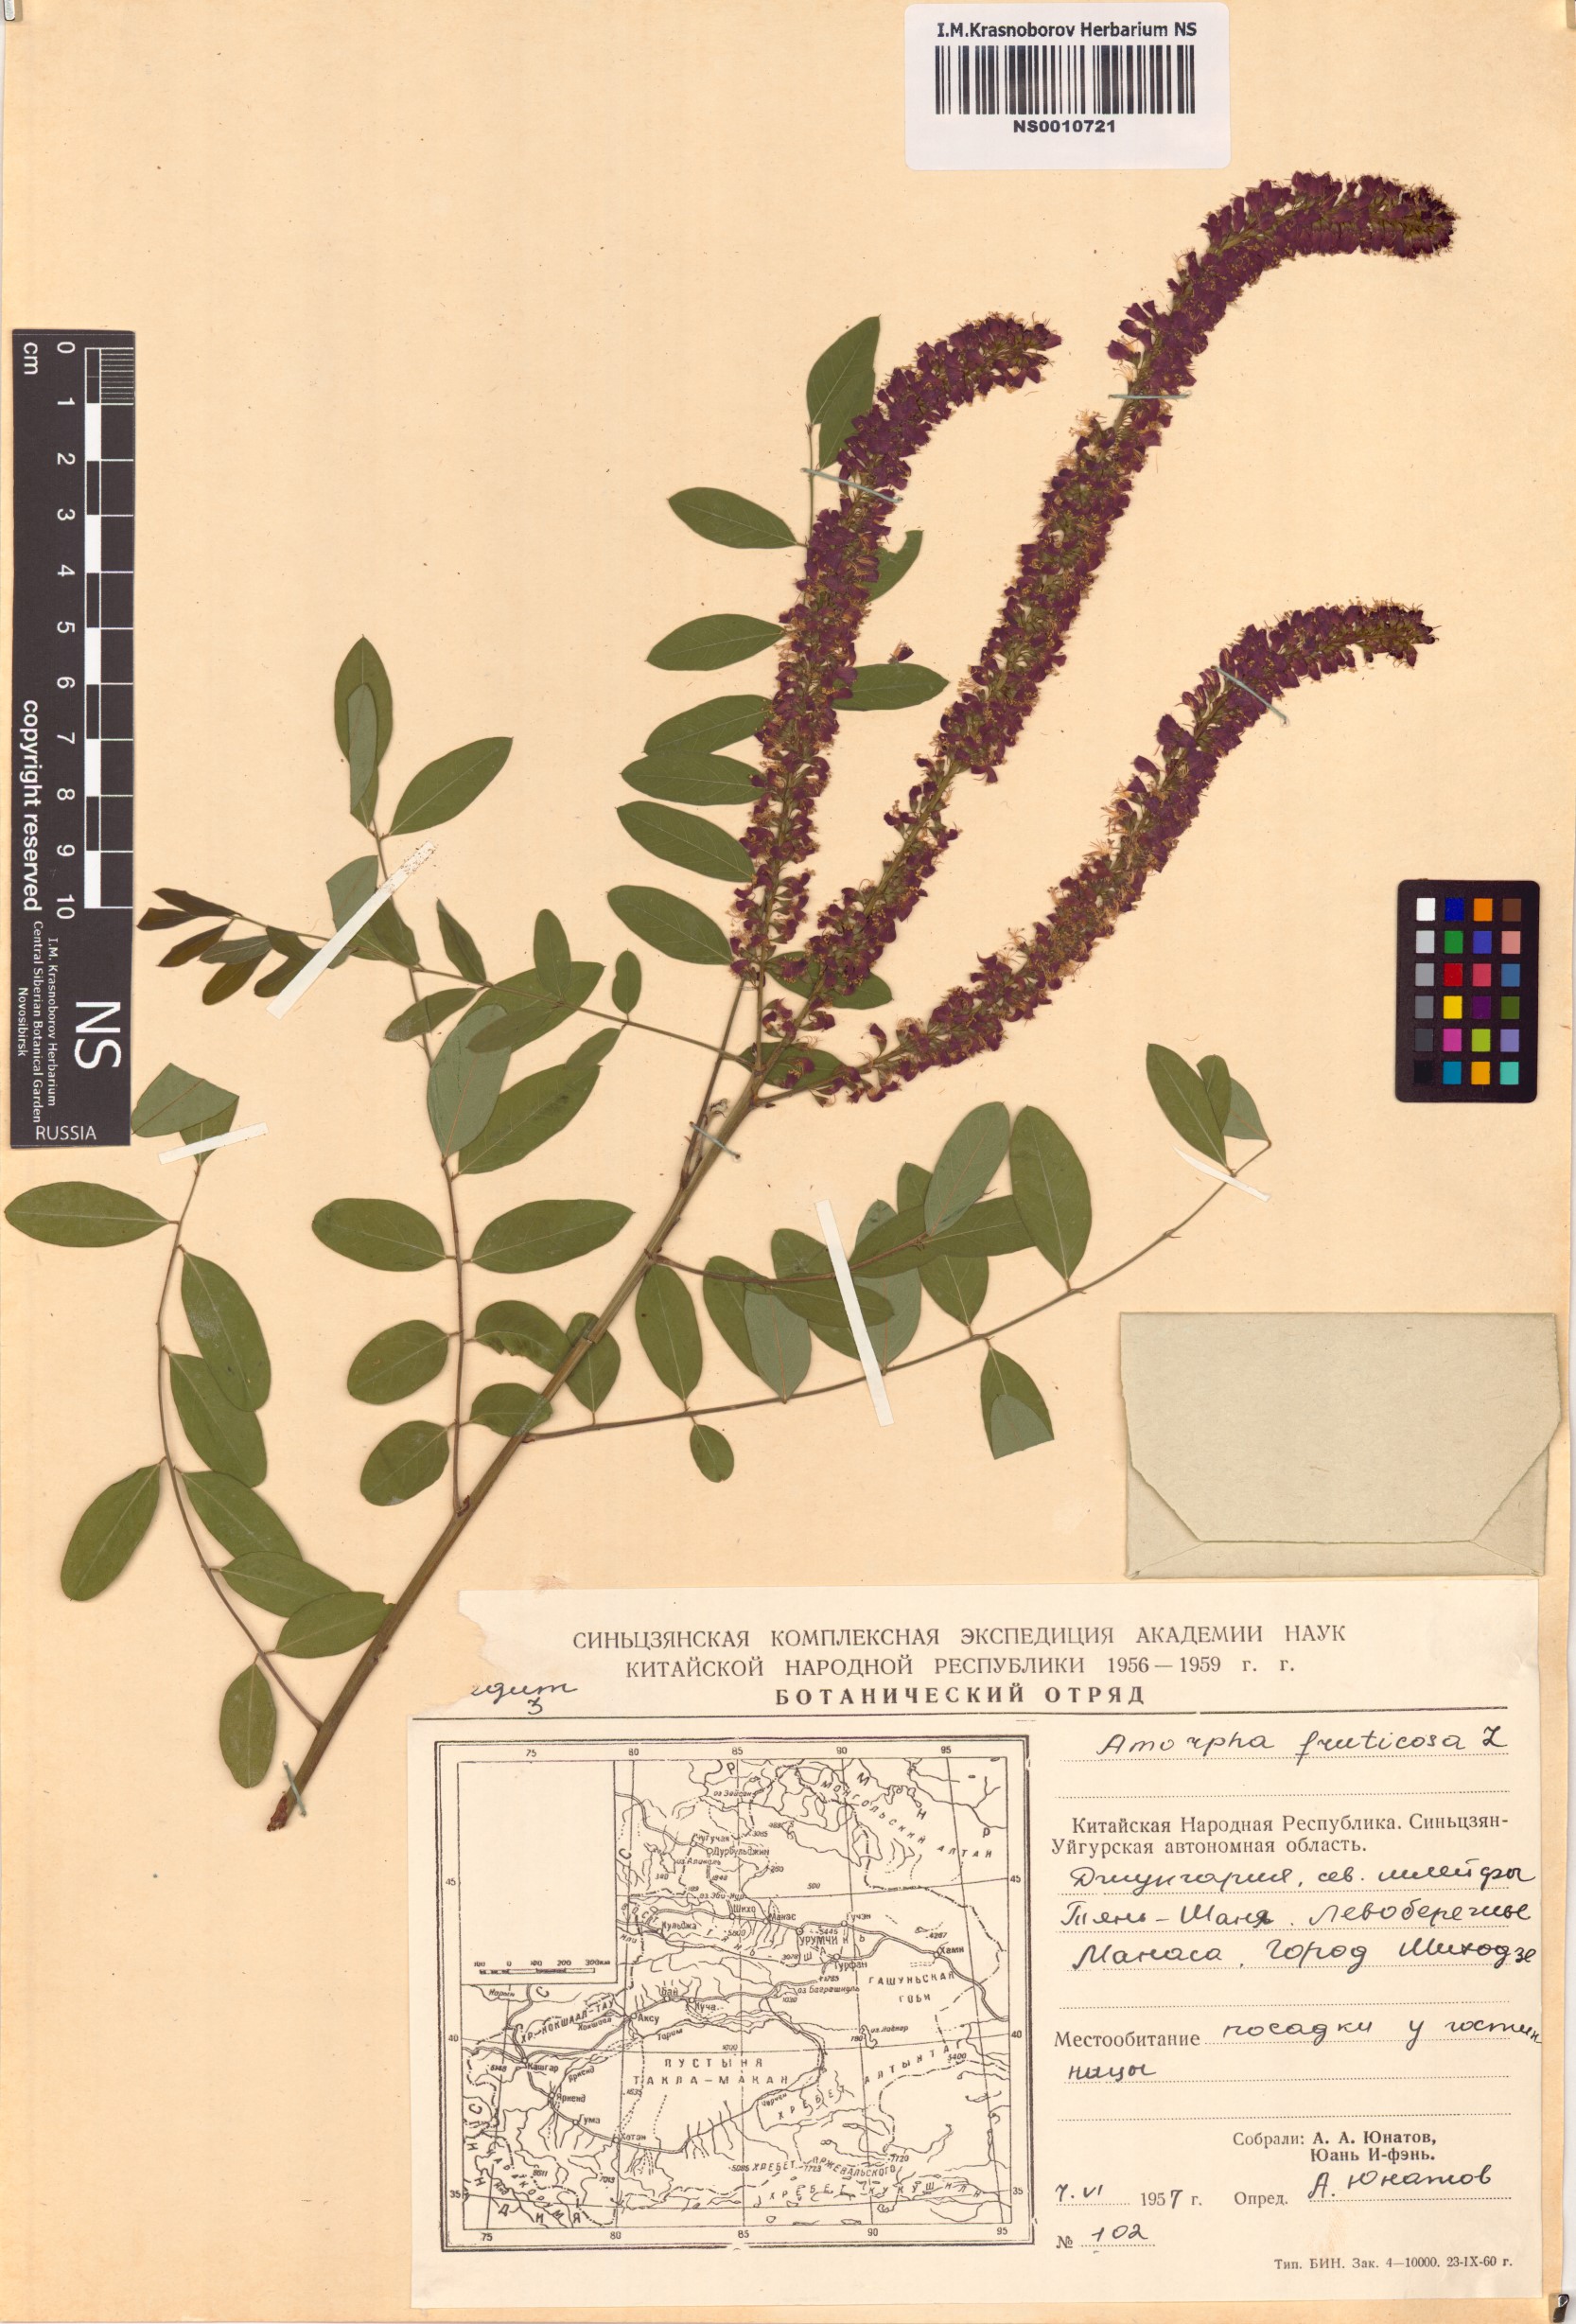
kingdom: Plantae
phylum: Tracheophyta
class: Magnoliopsida
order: Fabales
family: Fabaceae
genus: Amorpha
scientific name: Amorpha fruticosa
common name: False indigo
